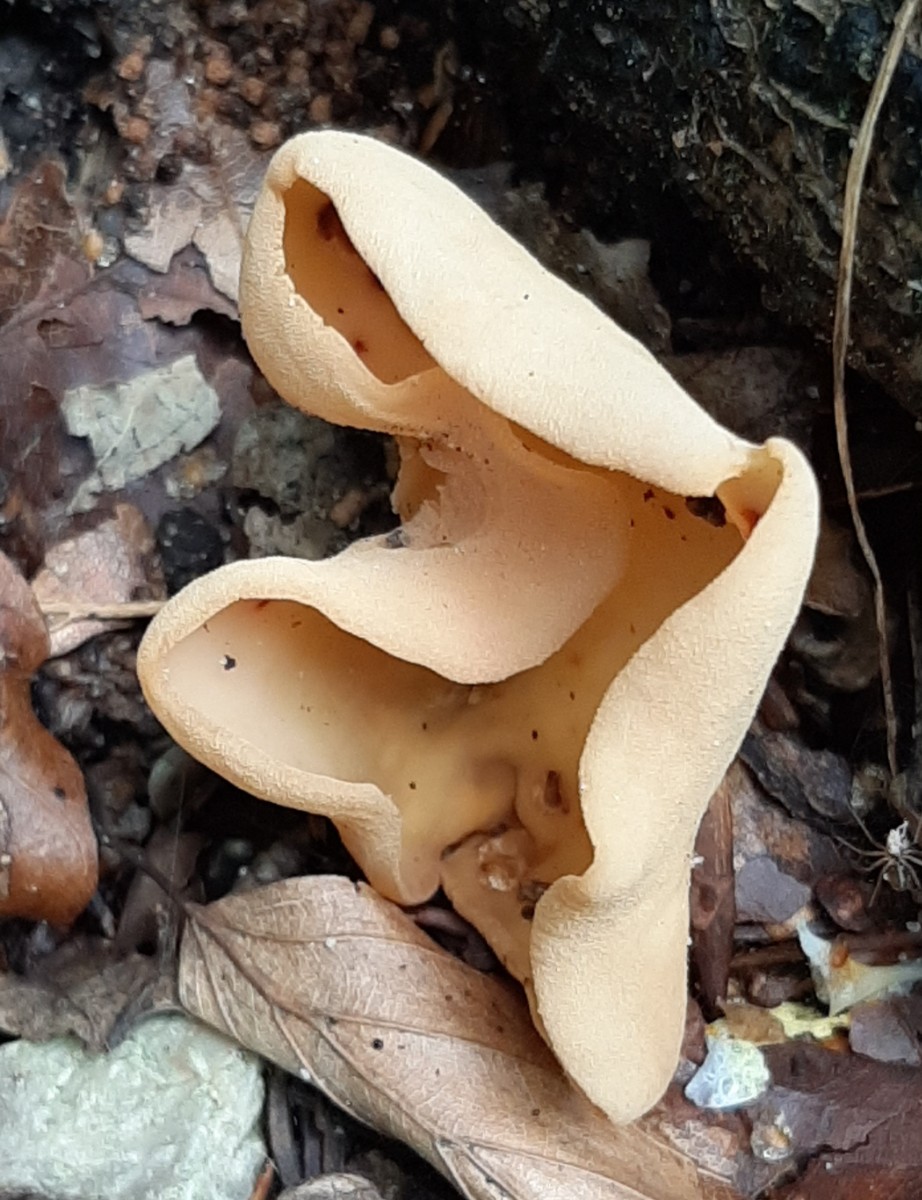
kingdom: Fungi
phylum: Ascomycota
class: Pezizomycetes
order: Pezizales
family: Otideaceae
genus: Otidea
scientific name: Otidea onotica
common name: æsel-ørebæger
